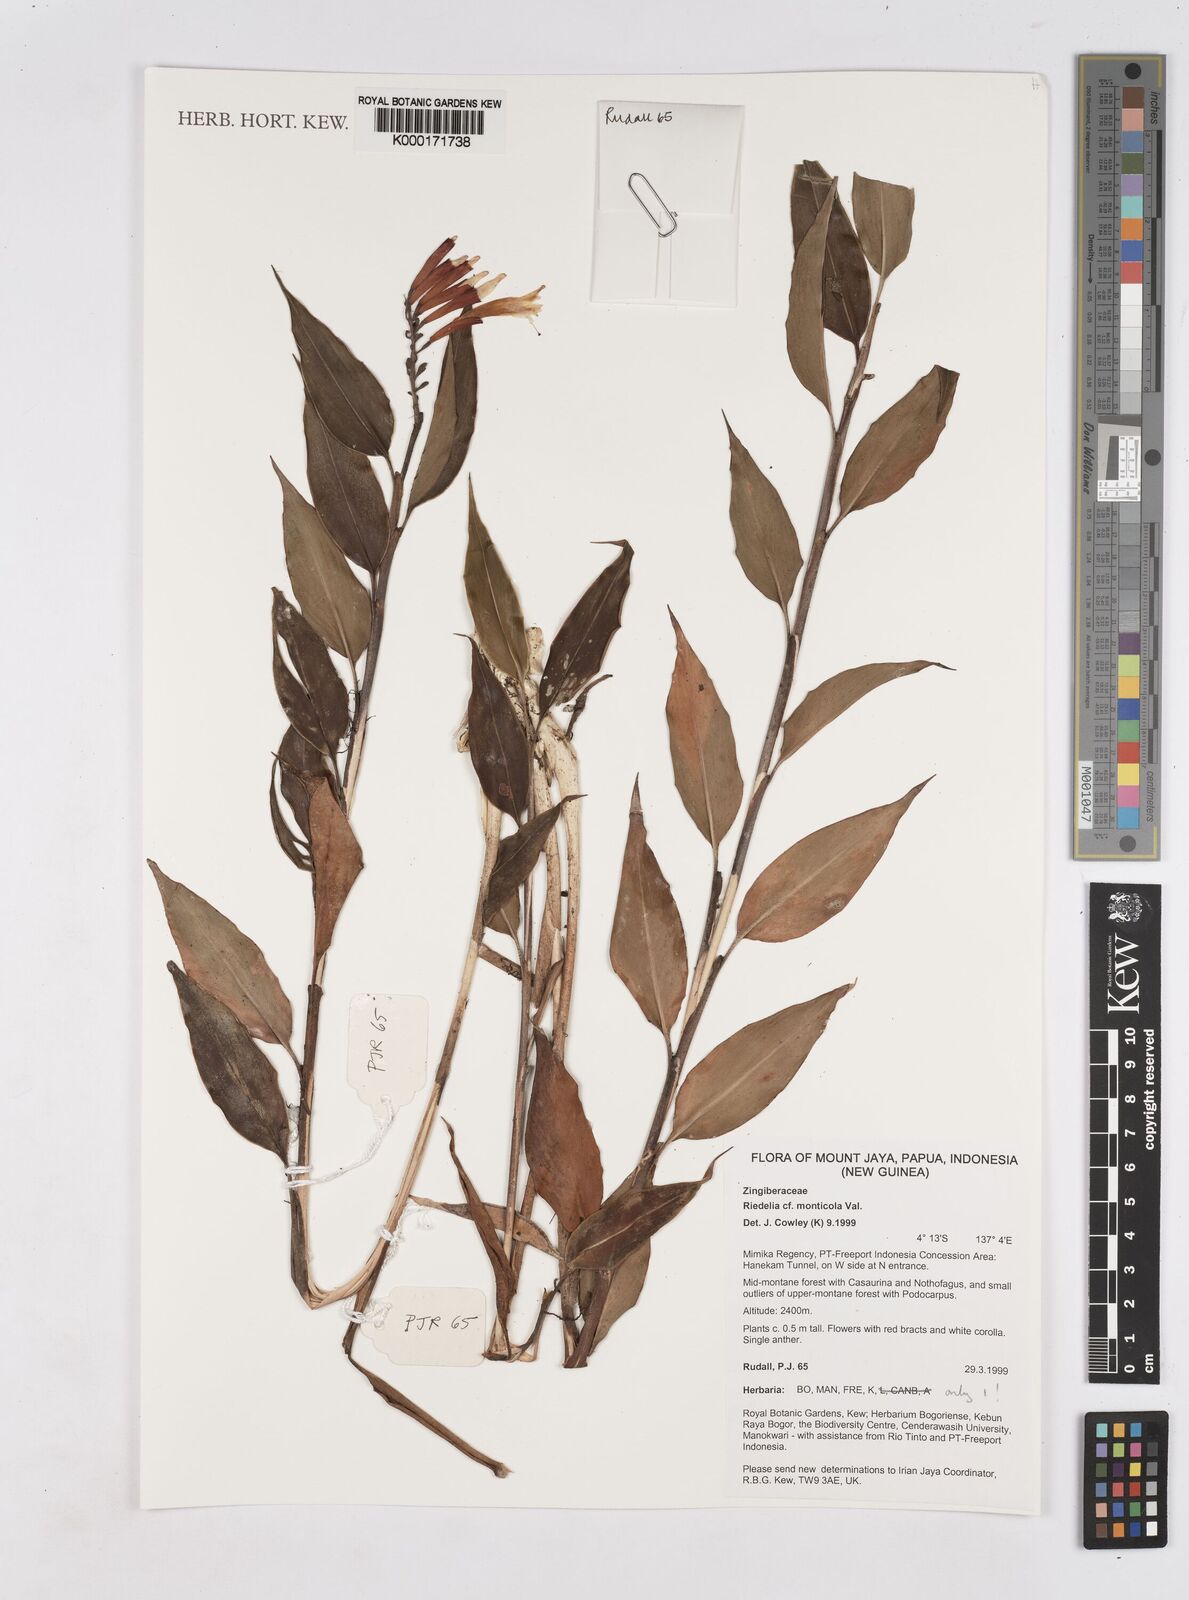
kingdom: Plantae
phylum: Tracheophyta
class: Liliopsida
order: Zingiberales
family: Zingiberaceae
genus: Riedelia
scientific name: Riedelia monticola
